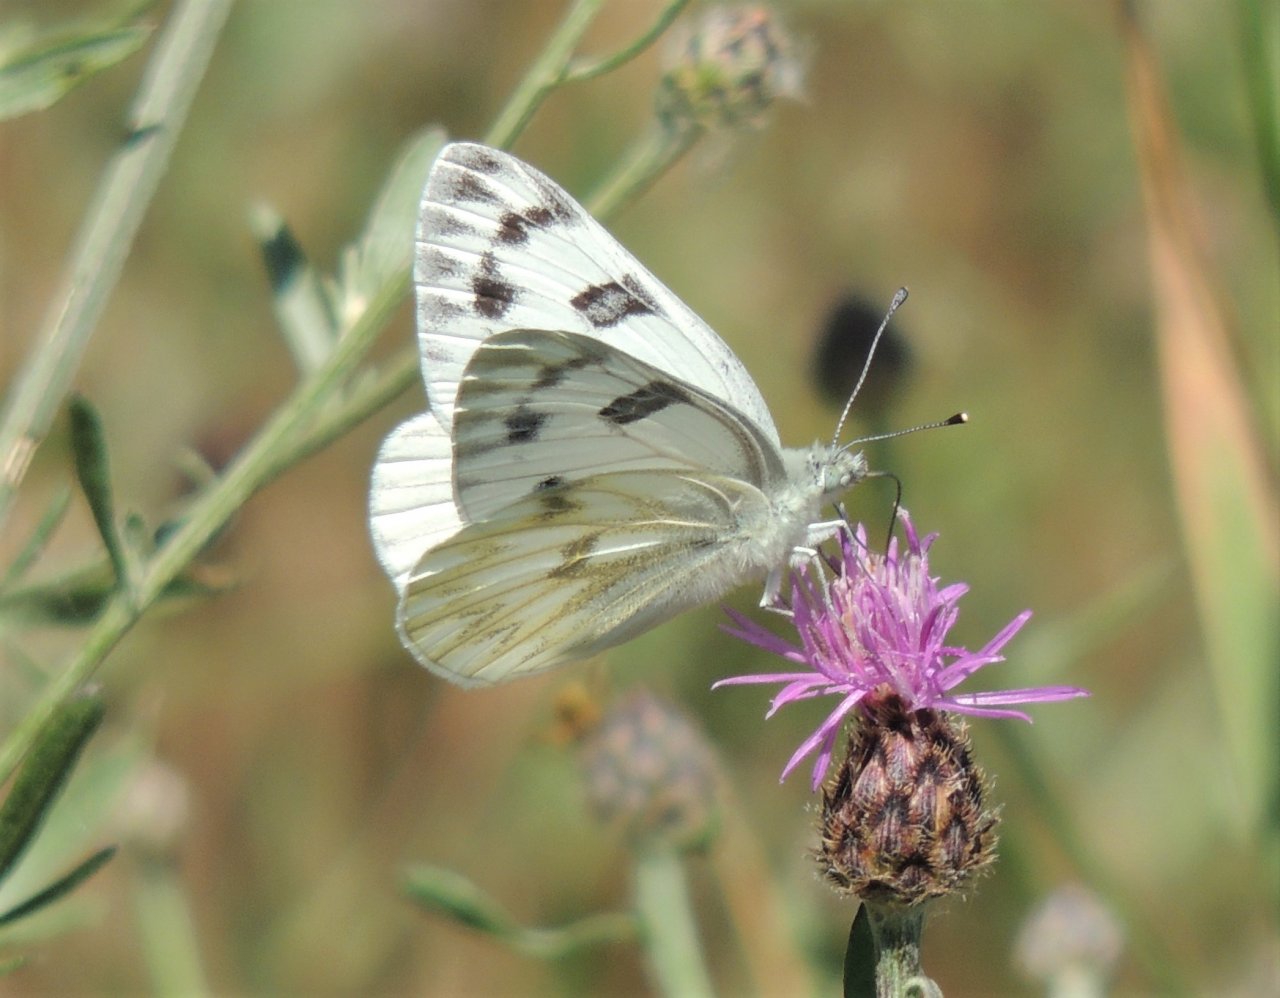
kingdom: Animalia
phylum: Arthropoda
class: Insecta
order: Lepidoptera
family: Pieridae
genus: Pontia
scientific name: Pontia protodice
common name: Checkered White
